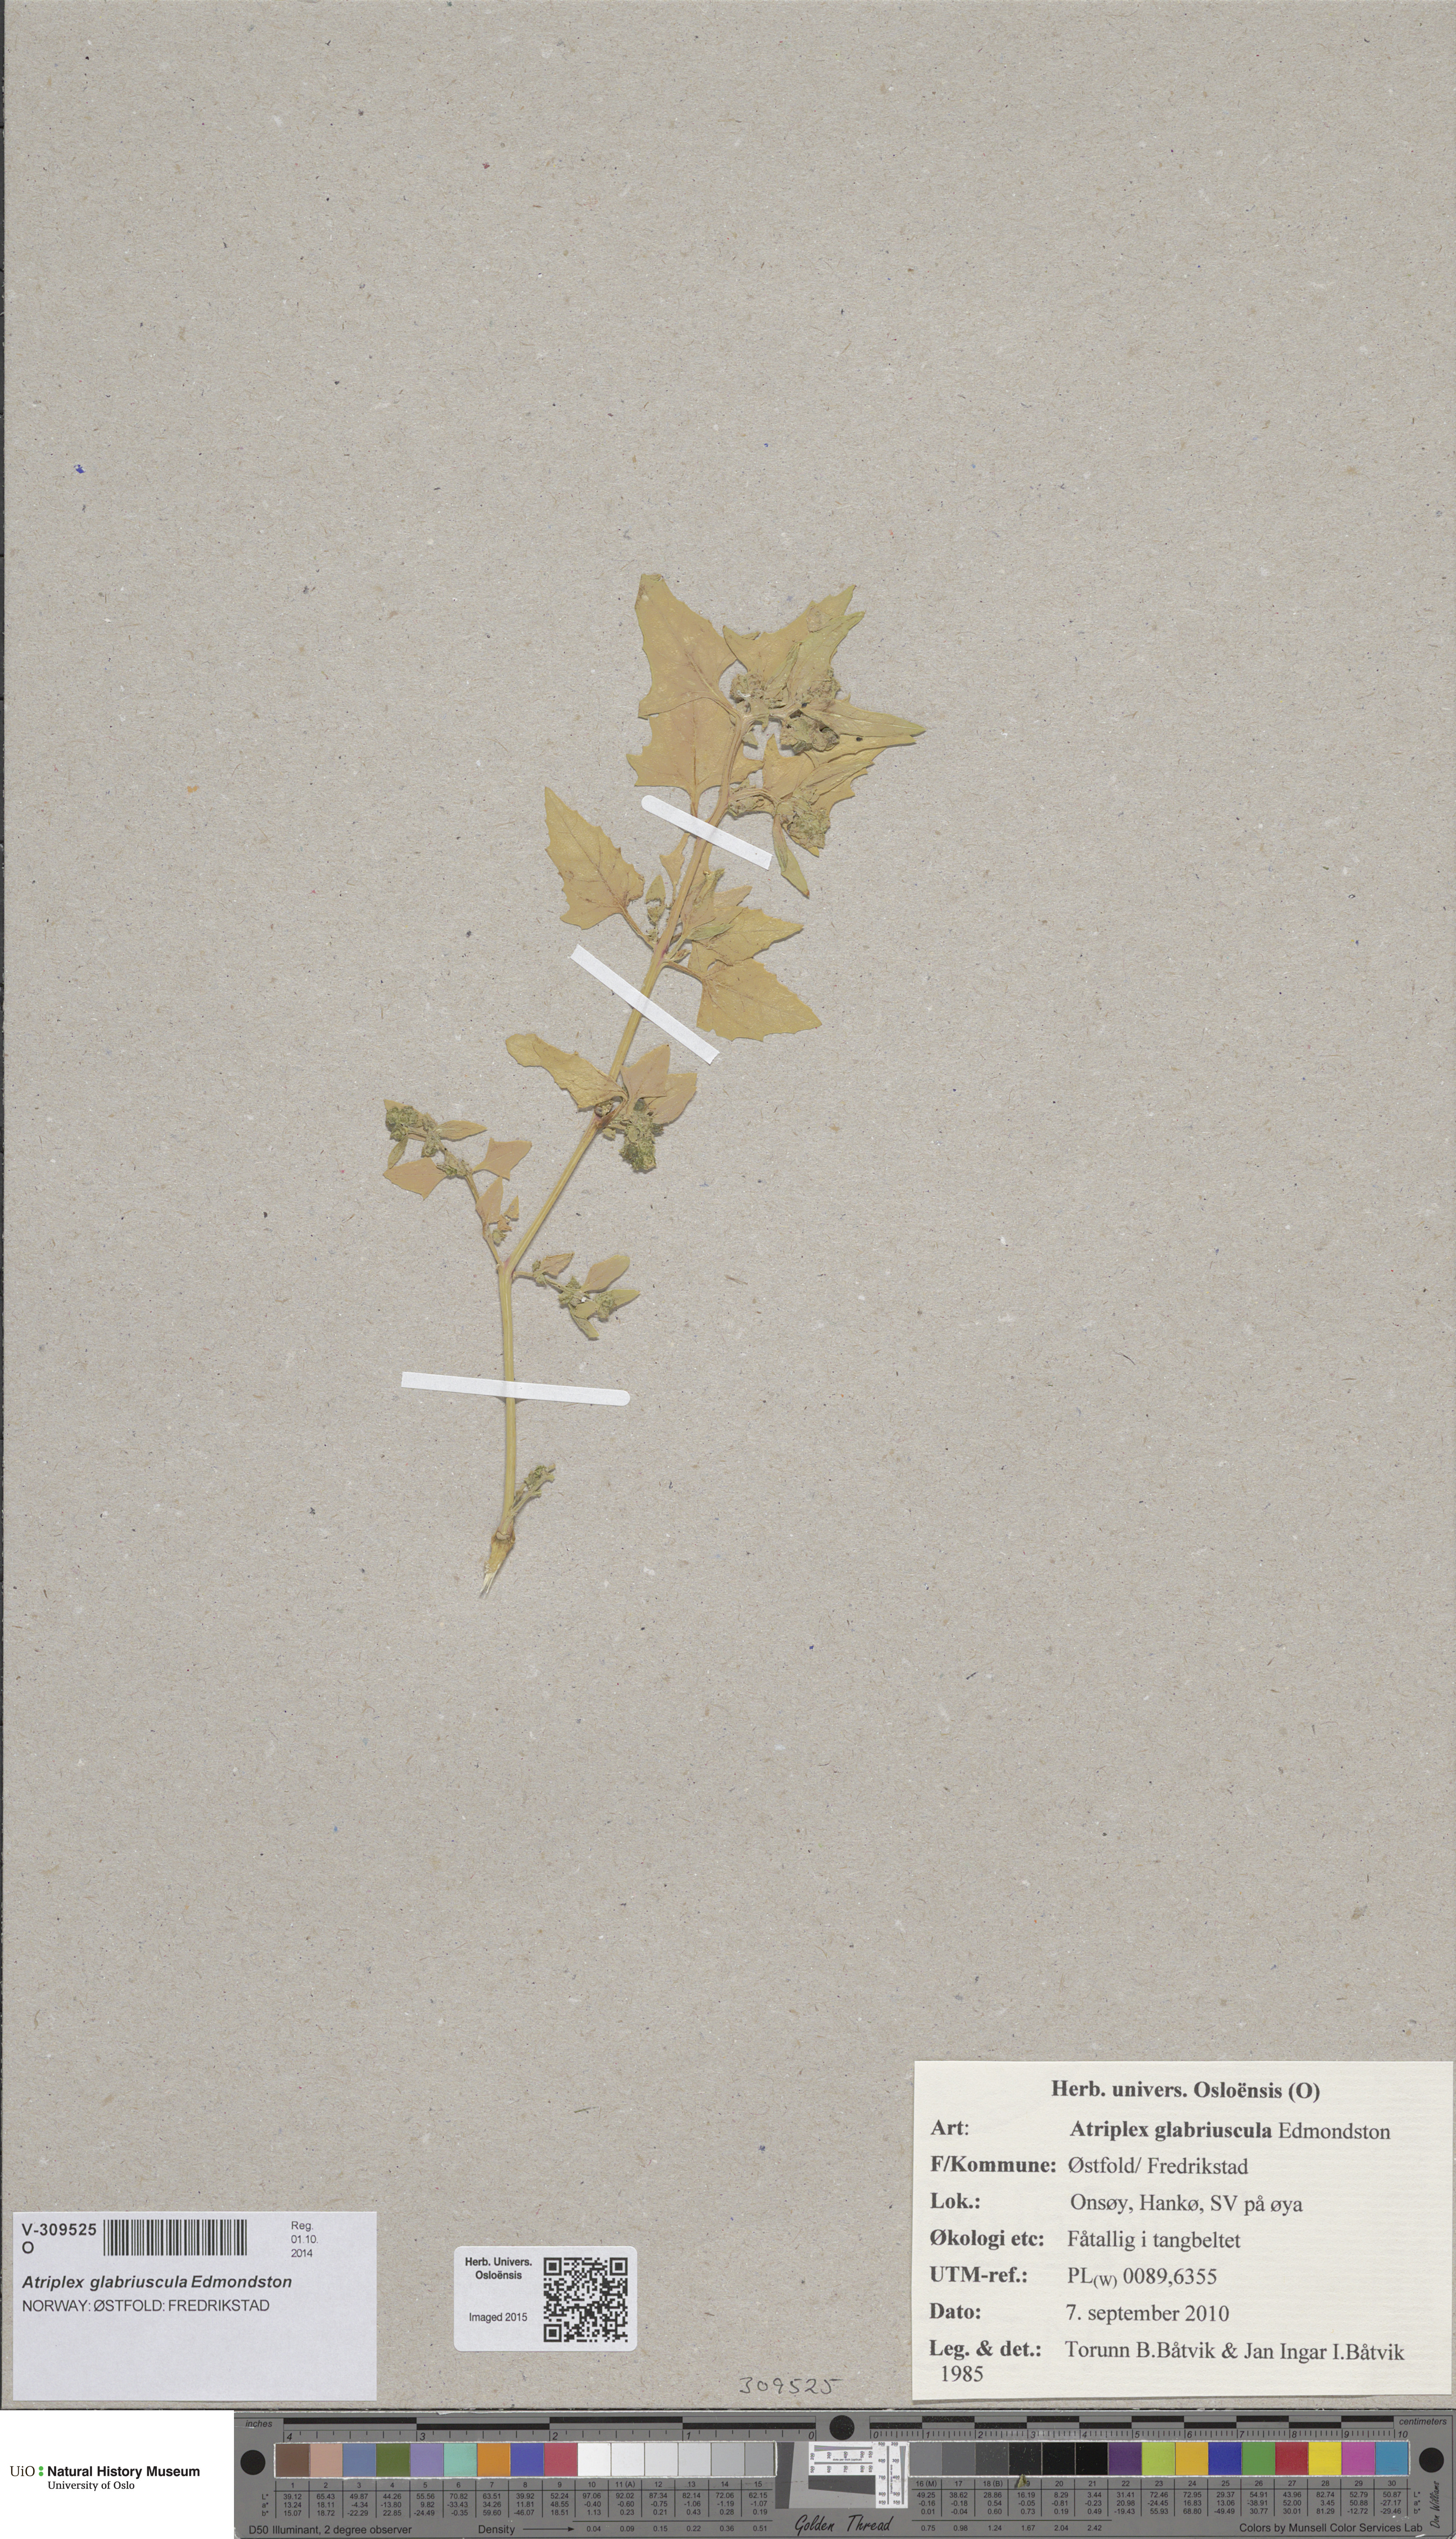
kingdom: Plantae
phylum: Tracheophyta
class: Magnoliopsida
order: Caryophyllales
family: Amaranthaceae
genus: Atriplex
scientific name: Atriplex glabriuscula
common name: Babington's orache
